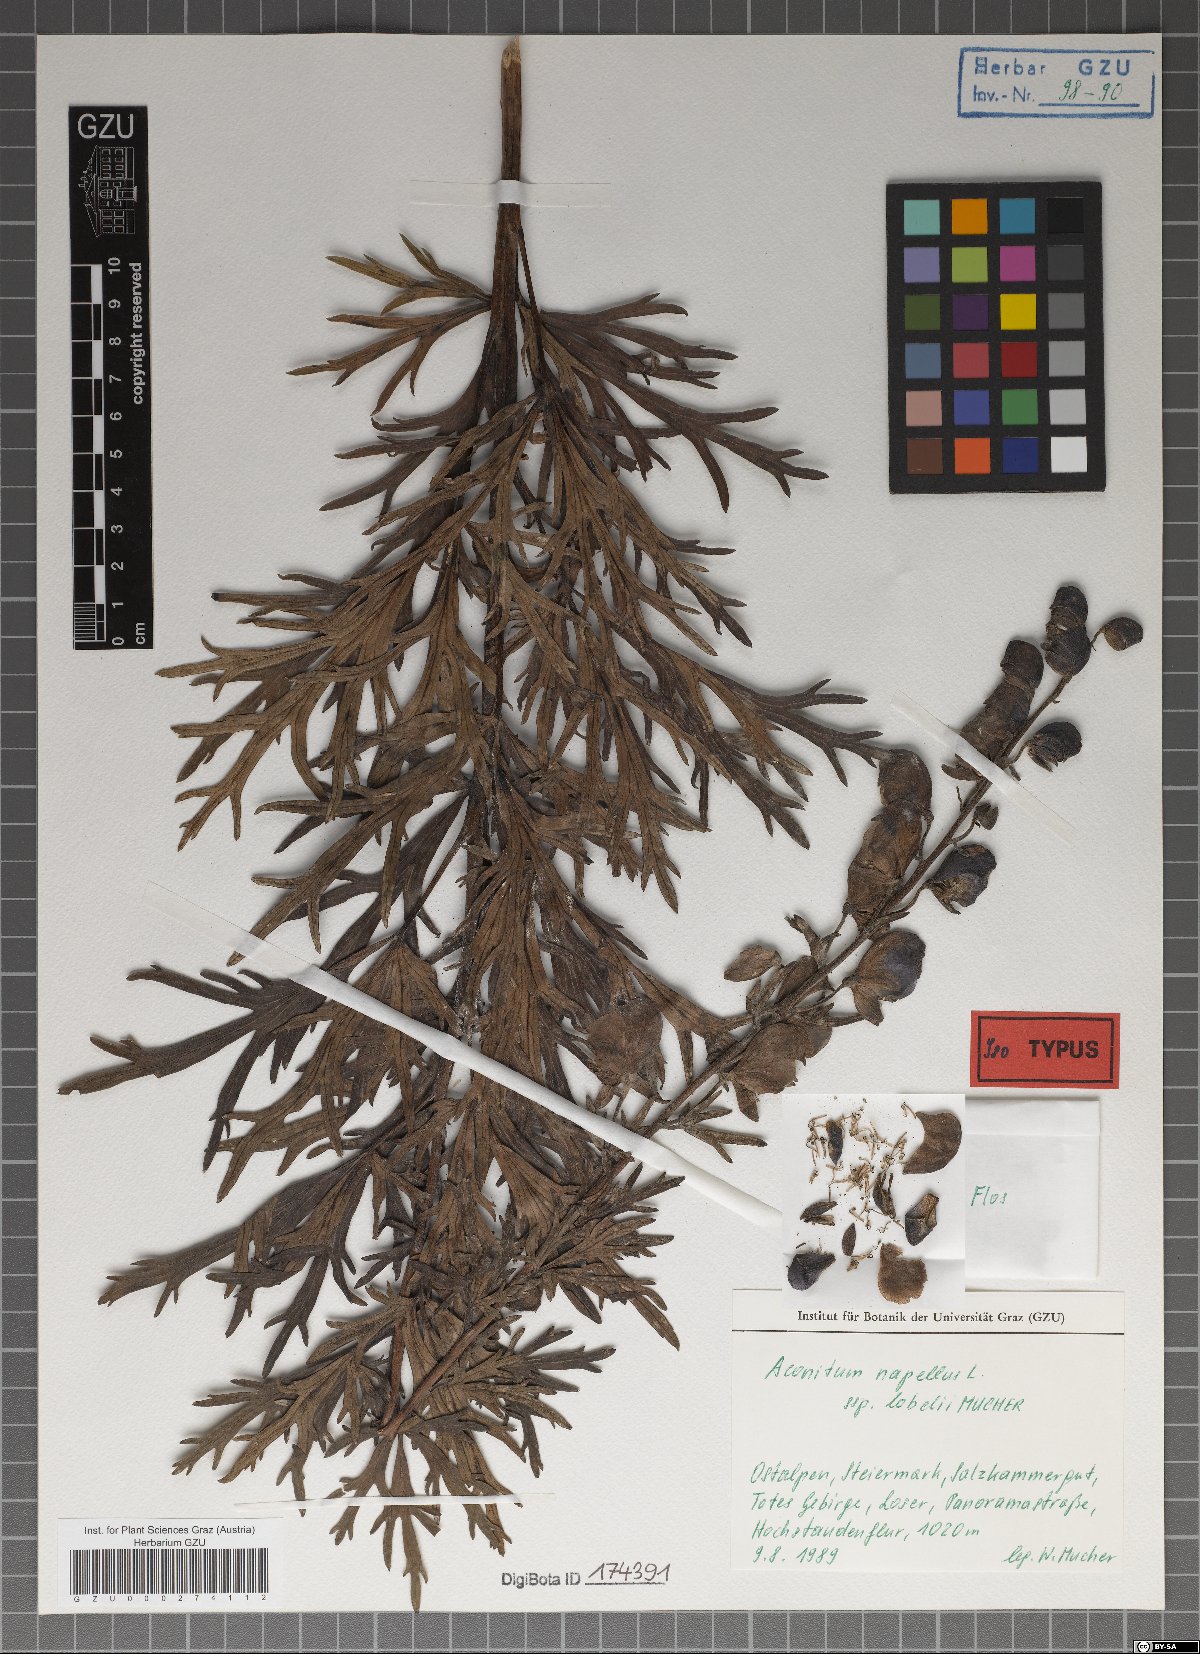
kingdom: Plantae
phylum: Tracheophyta
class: Magnoliopsida
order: Ranunculales
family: Ranunculaceae
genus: Aconitum
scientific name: Aconitum napellus
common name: Garden monkshood
